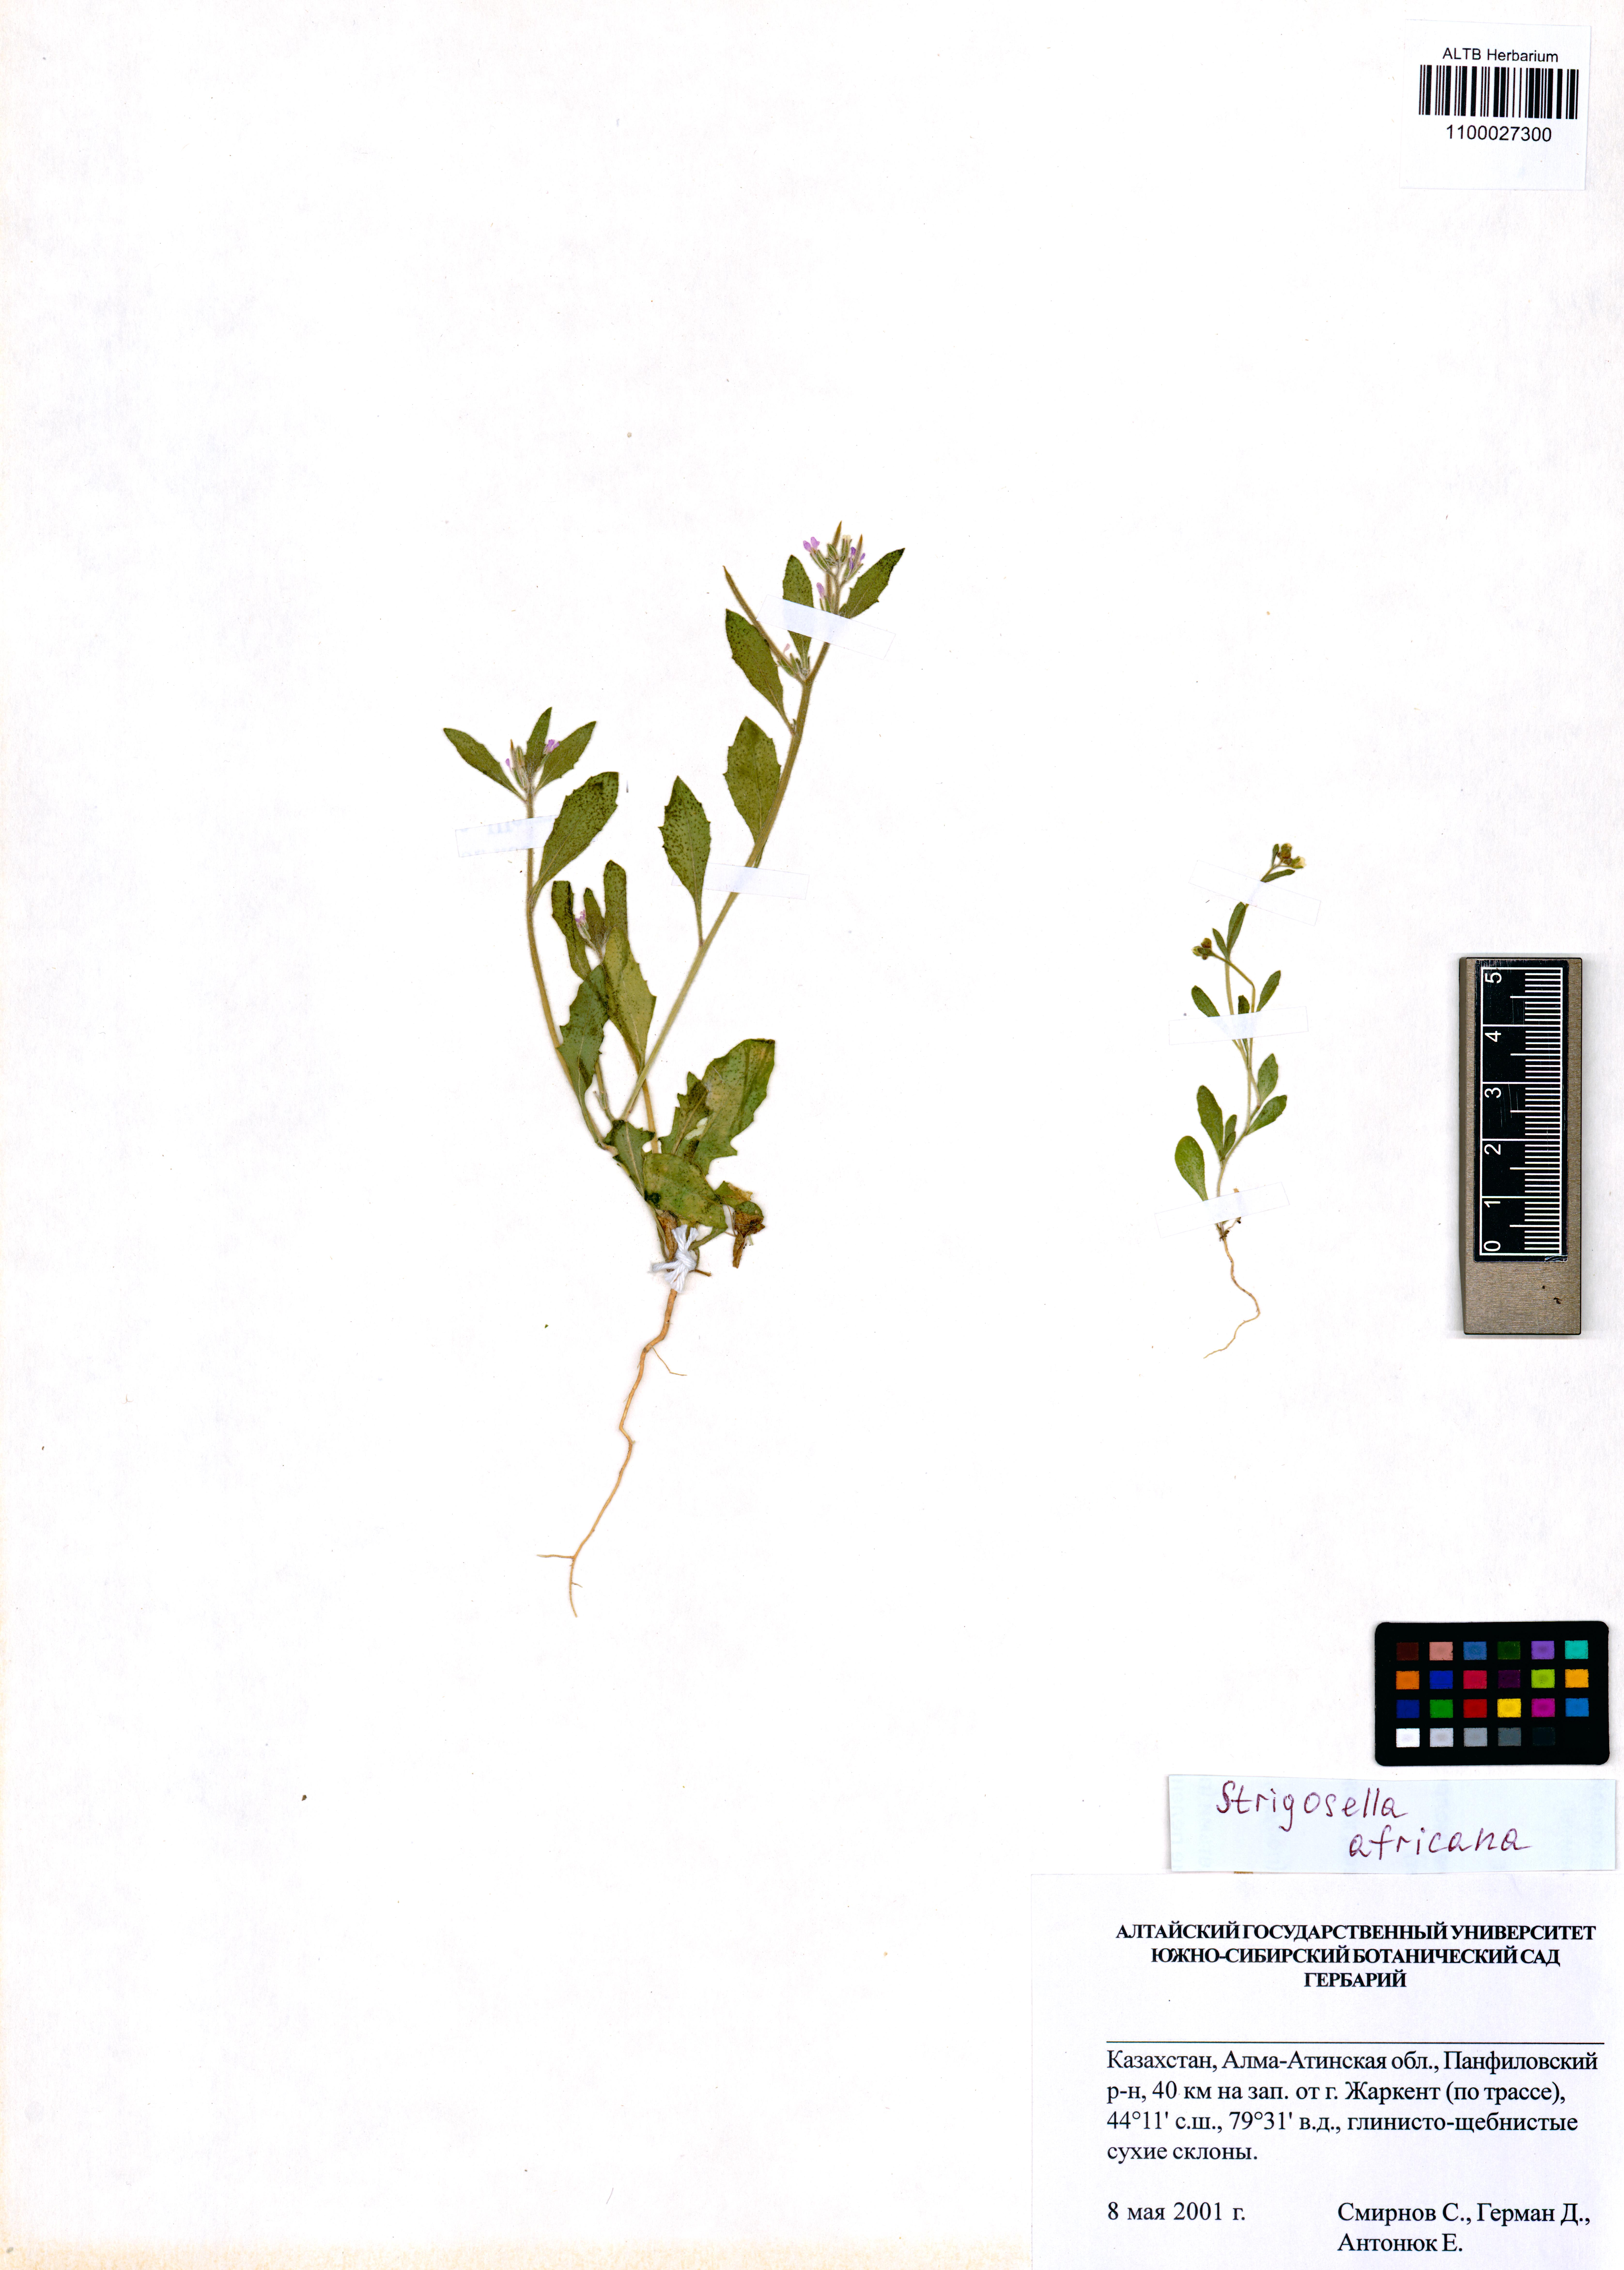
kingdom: Plantae
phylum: Tracheophyta
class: Magnoliopsida
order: Brassicales
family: Brassicaceae
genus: Strigosella
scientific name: Strigosella africana
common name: African mustard
